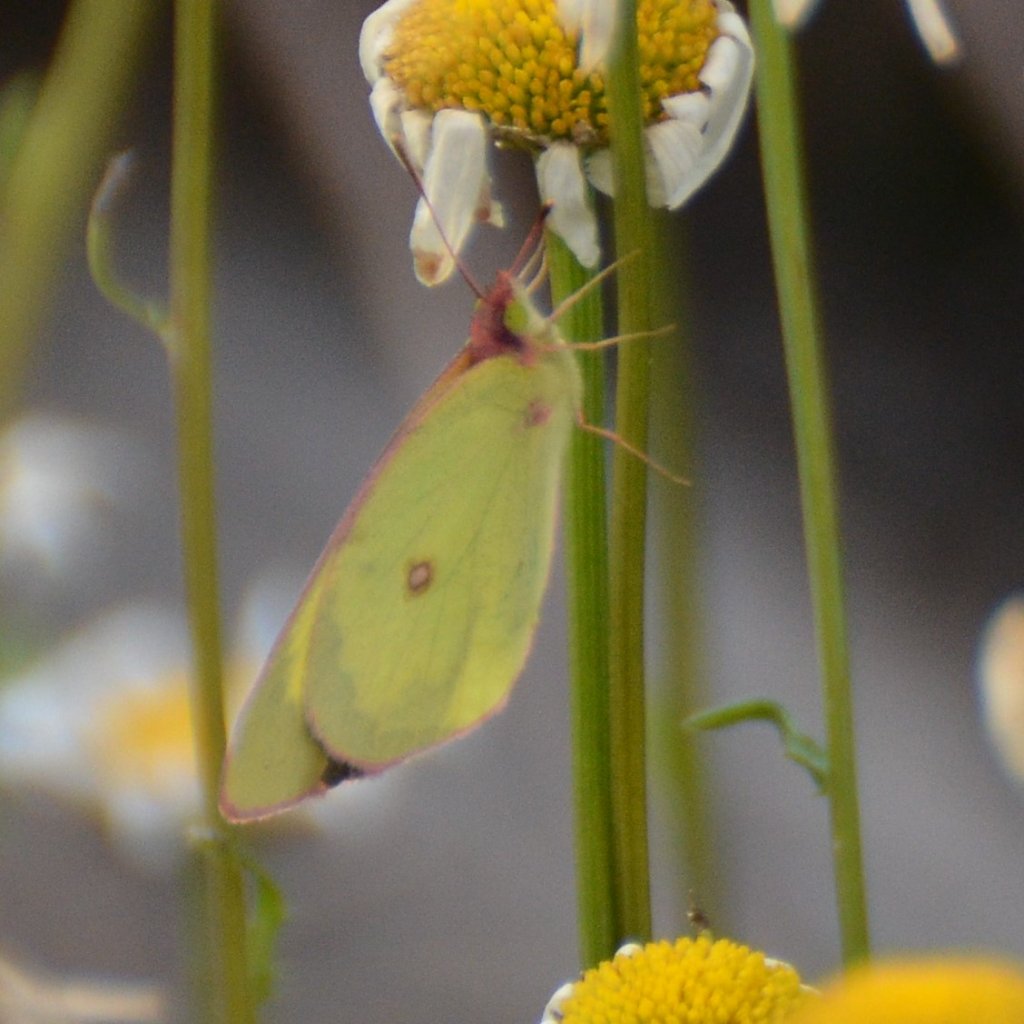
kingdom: Animalia
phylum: Arthropoda
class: Insecta
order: Lepidoptera
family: Pieridae
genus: Colias
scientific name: Colias interior
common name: Pink-edged Sulphur
